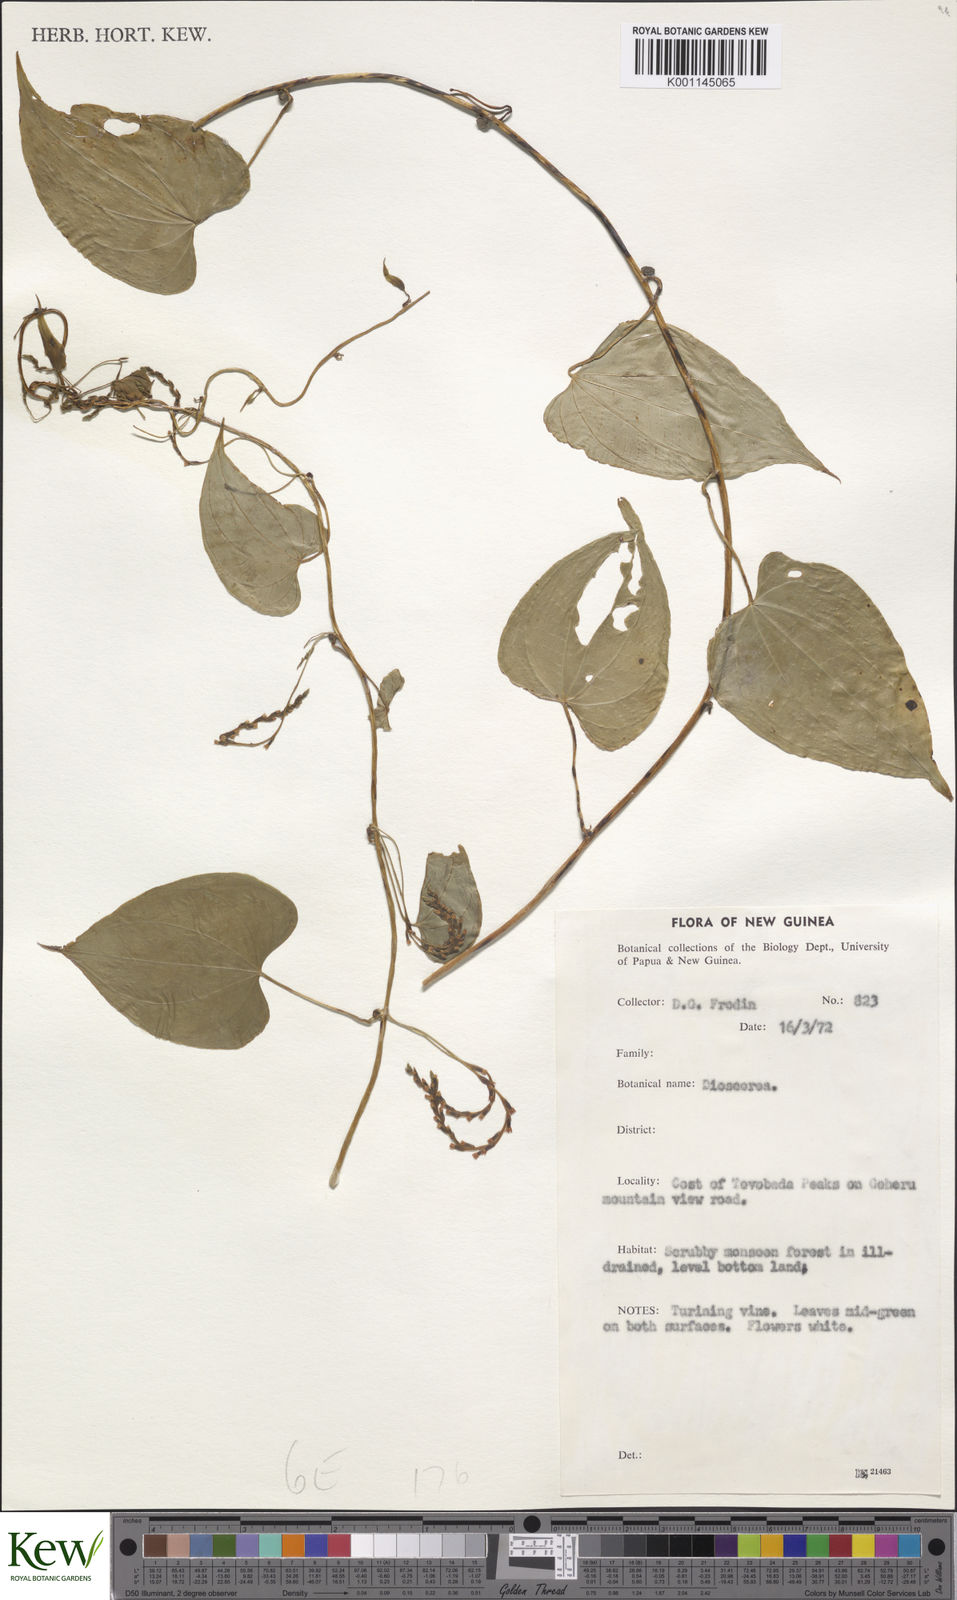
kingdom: Plantae
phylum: Tracheophyta
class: Liliopsida
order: Dioscoreales
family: Dioscoreaceae
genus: Dioscorea
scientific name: Dioscorea
